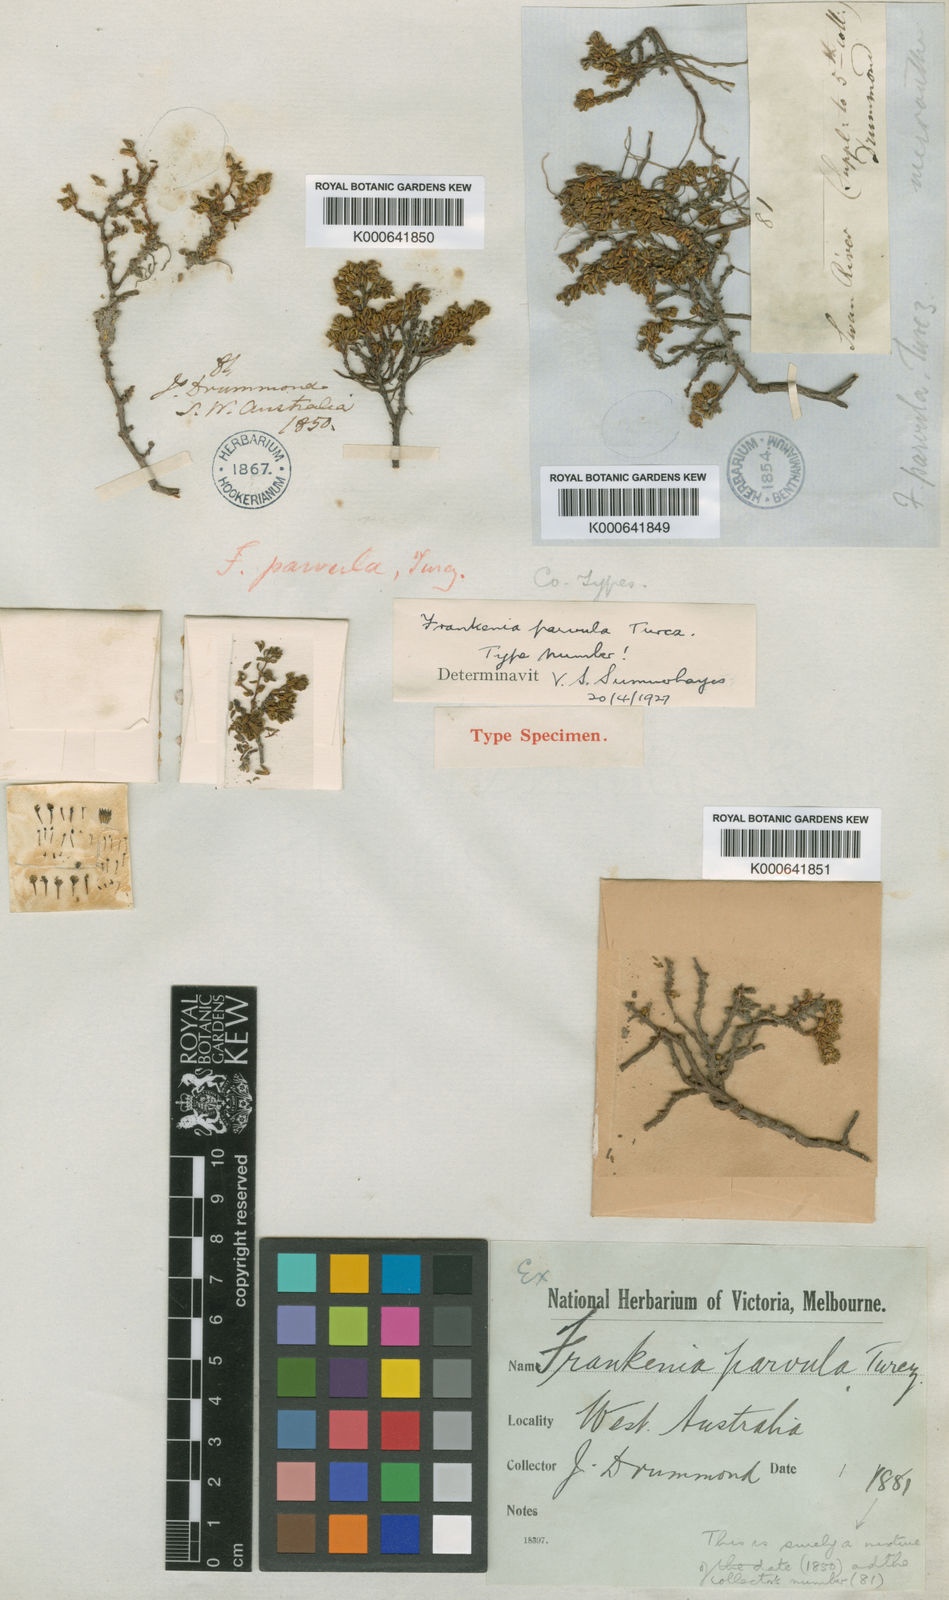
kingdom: Plantae
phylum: Tracheophyta
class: Magnoliopsida
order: Caryophyllales
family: Frankeniaceae
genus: Frankenia
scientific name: Frankenia parvula
